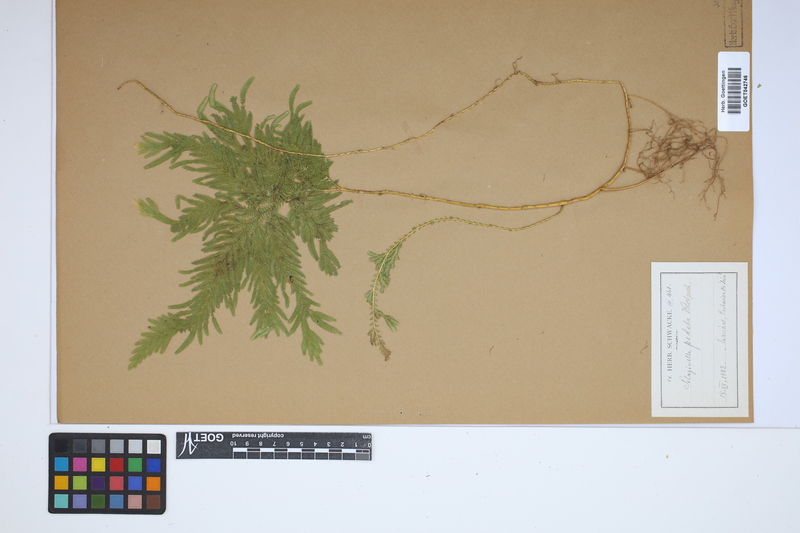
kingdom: Plantae
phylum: Tracheophyta
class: Lycopodiopsida
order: Selaginellales
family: Selaginellaceae
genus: Selaginella
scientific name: Selaginella pedata
